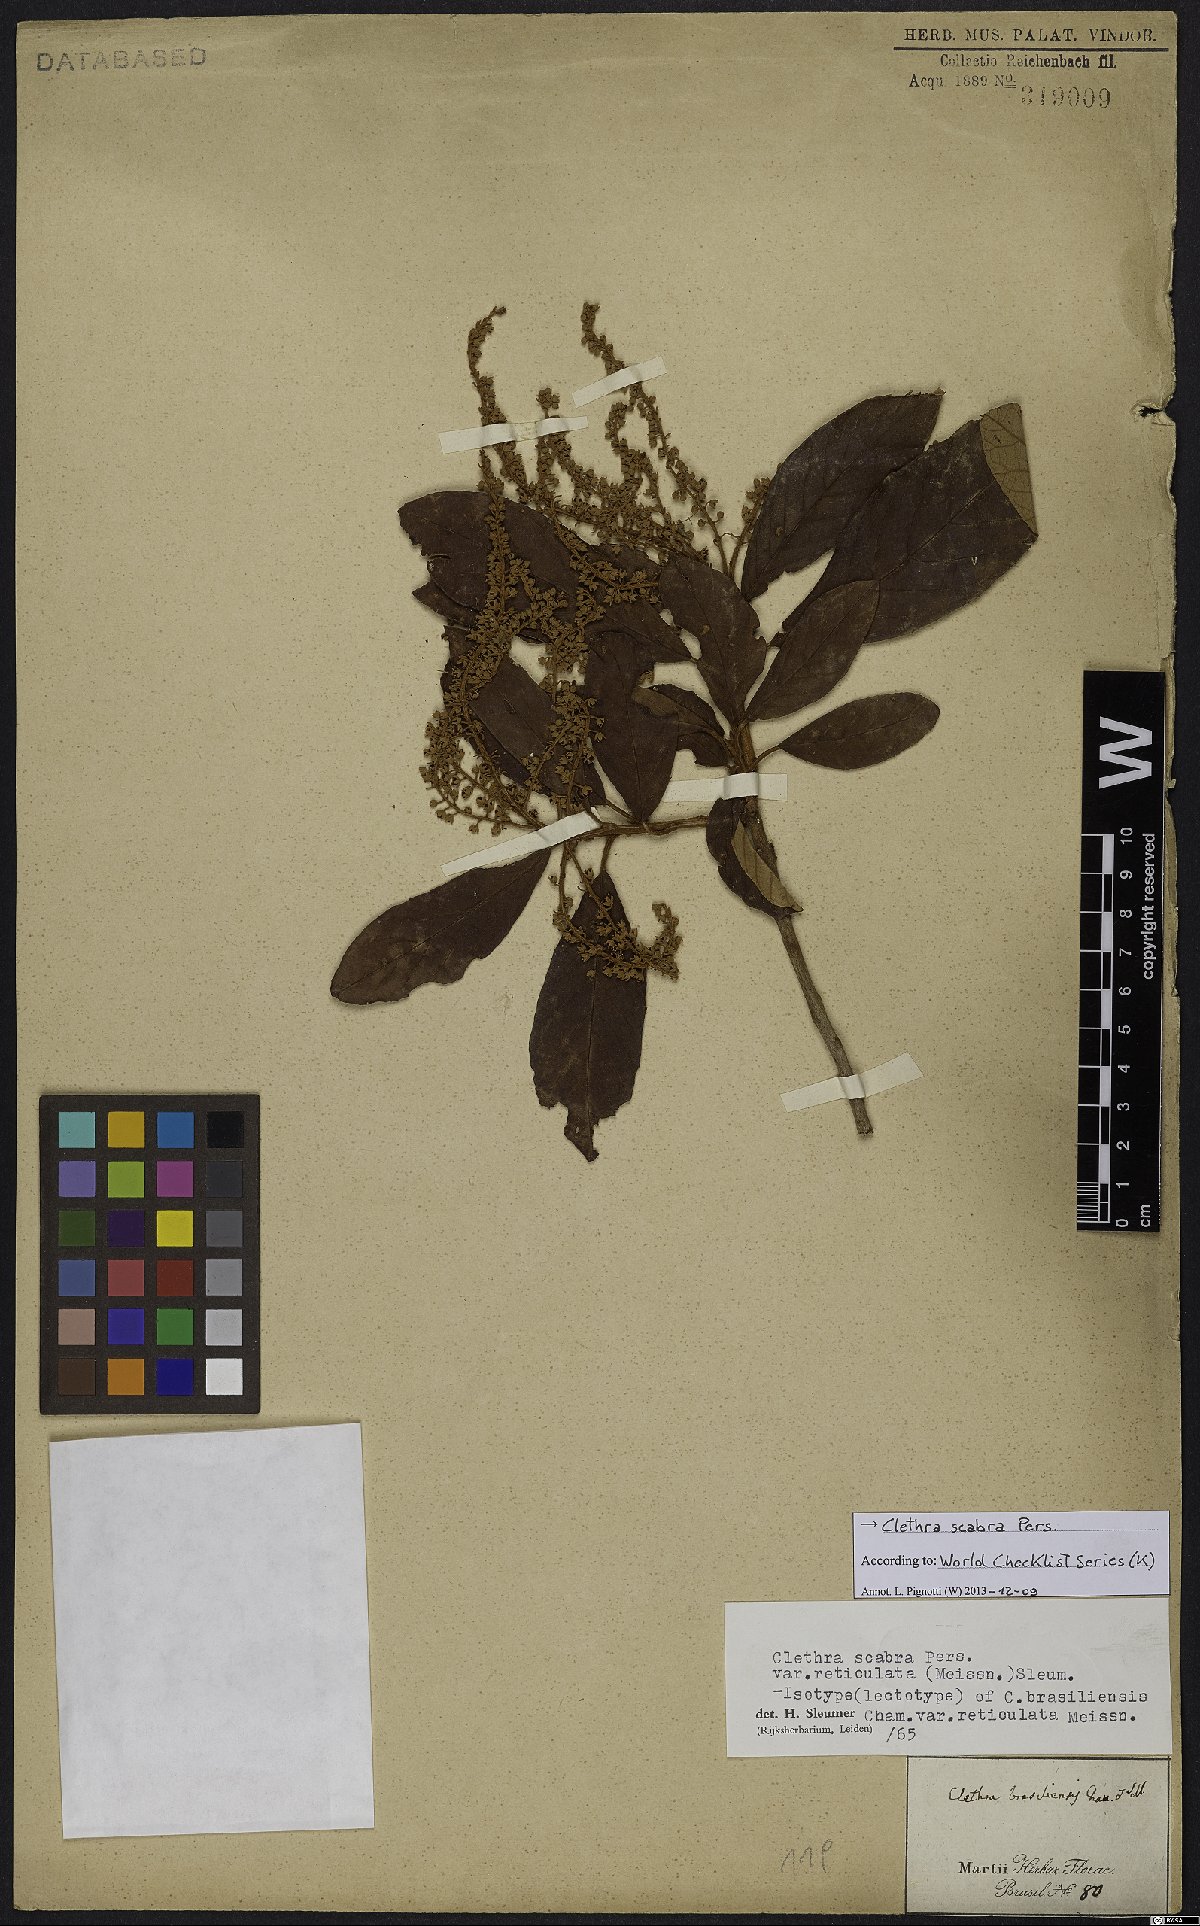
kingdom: Plantae
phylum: Tracheophyta
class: Magnoliopsida
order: Ericales
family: Clethraceae
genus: Clethra
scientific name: Clethra scabra
